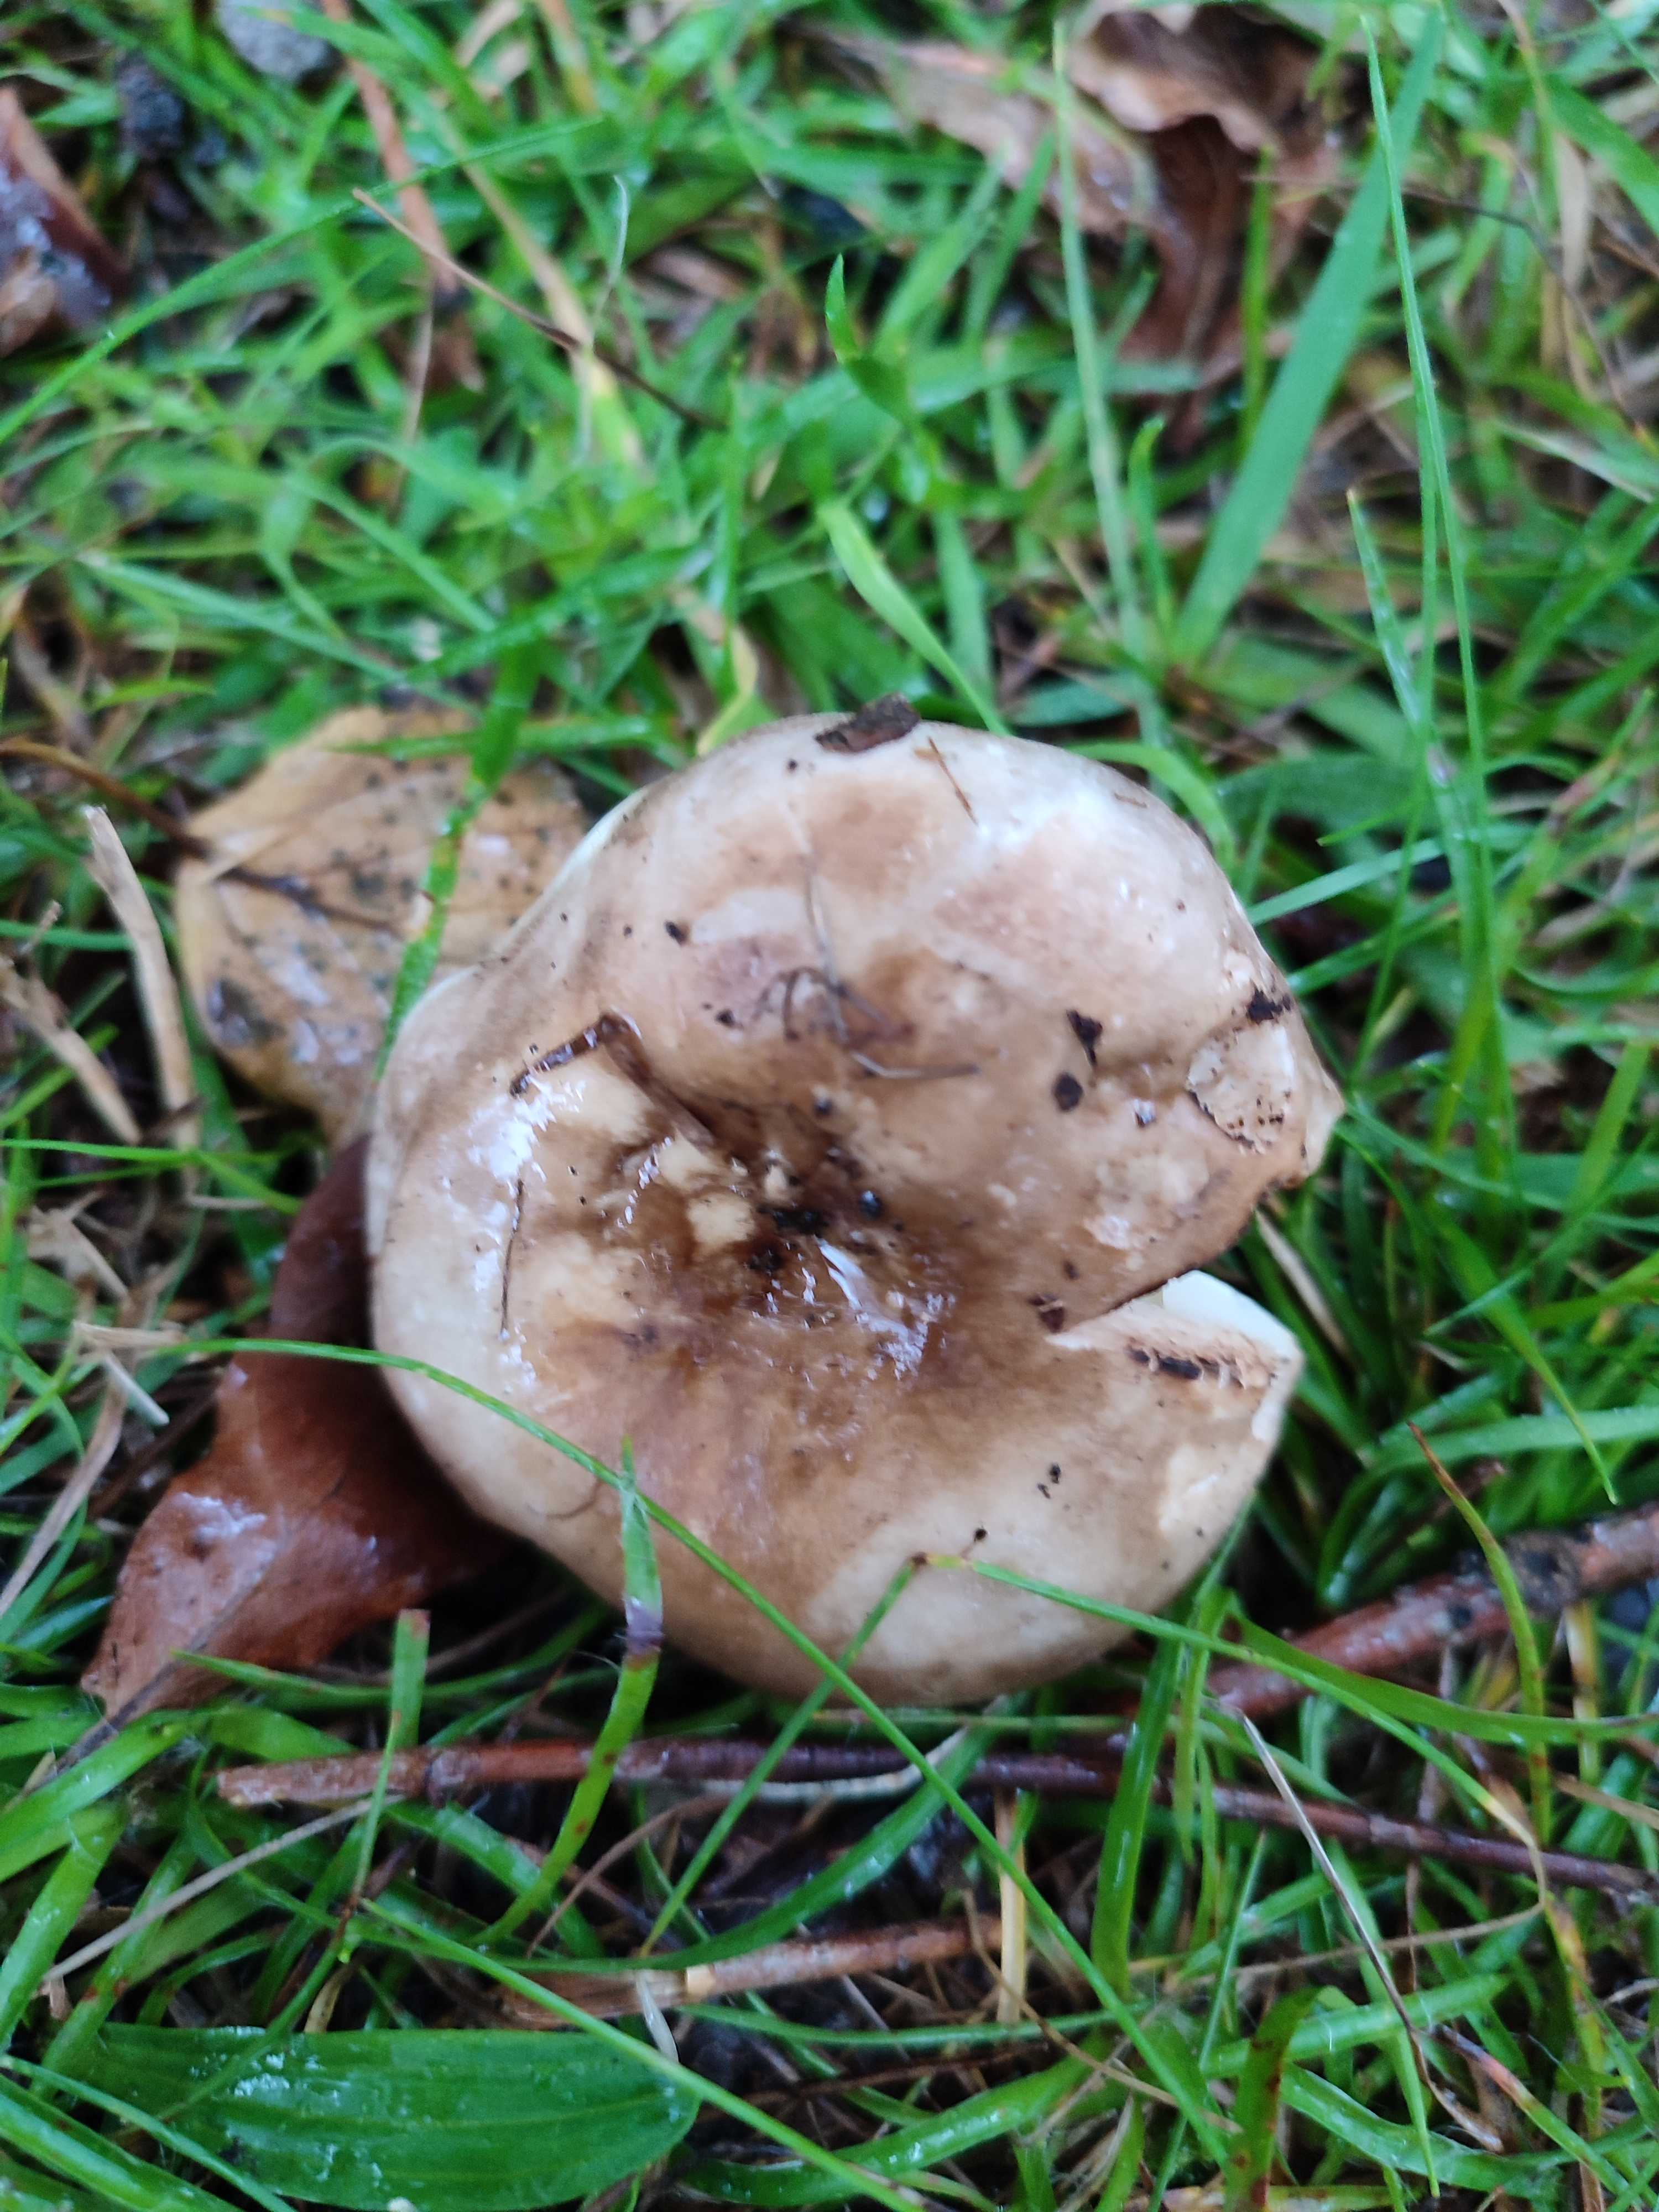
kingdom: Fungi
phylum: Basidiomycota
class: Agaricomycetes
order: Russulales
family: Russulaceae
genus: Russula
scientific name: Russula adusta
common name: sværtende skørhat
